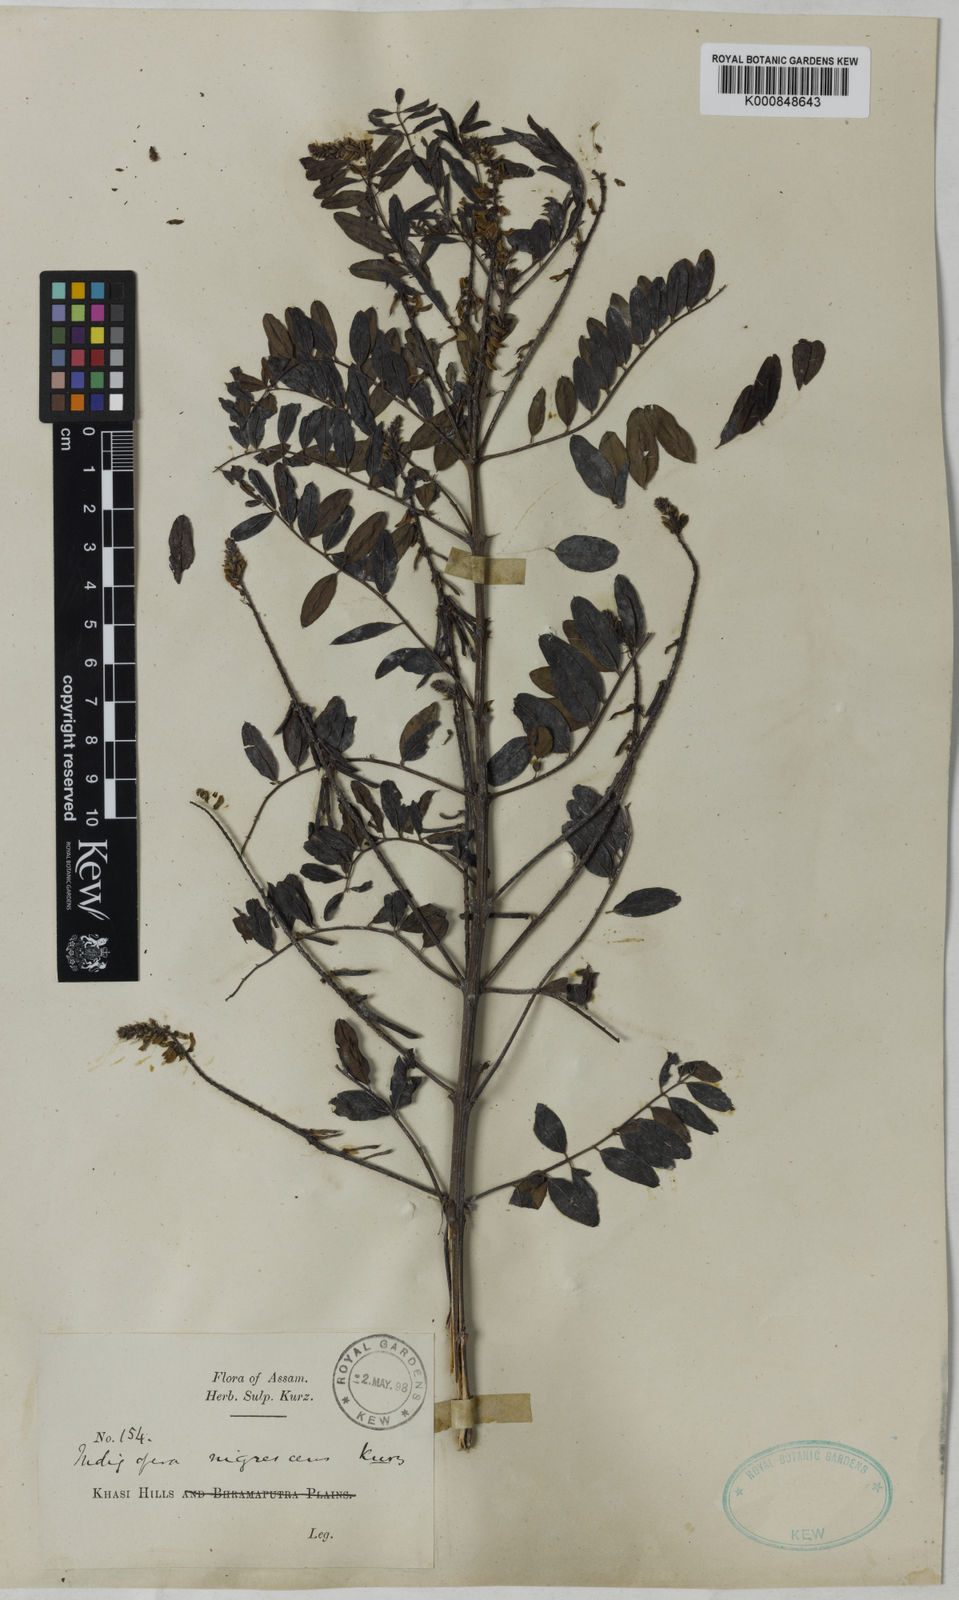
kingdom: Plantae
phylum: Tracheophyta
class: Magnoliopsida
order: Fabales
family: Fabaceae
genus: Indigofera
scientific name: Indigofera nigrescens
